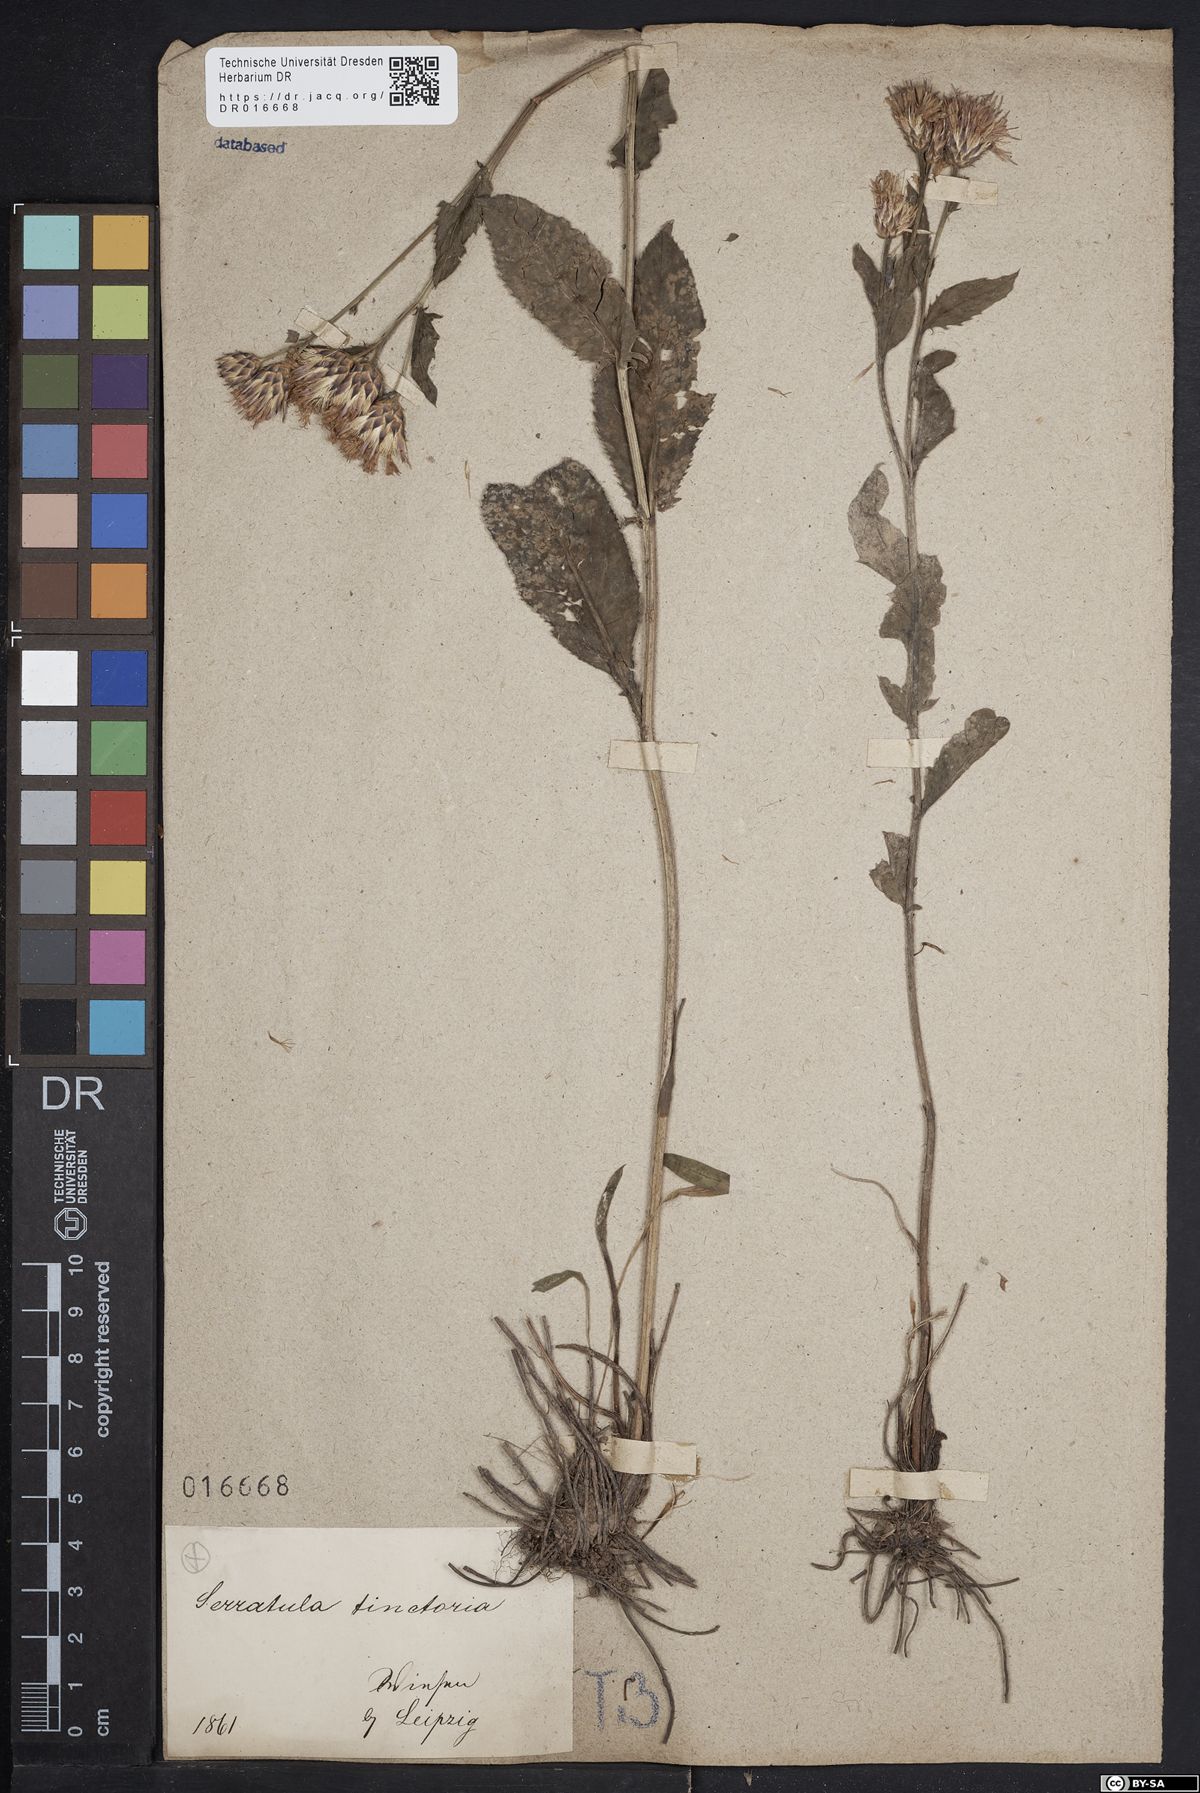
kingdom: Plantae
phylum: Tracheophyta
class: Magnoliopsida
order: Asterales
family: Asteraceae
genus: Serratula
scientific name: Serratula tinctoria
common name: Saw-wort
